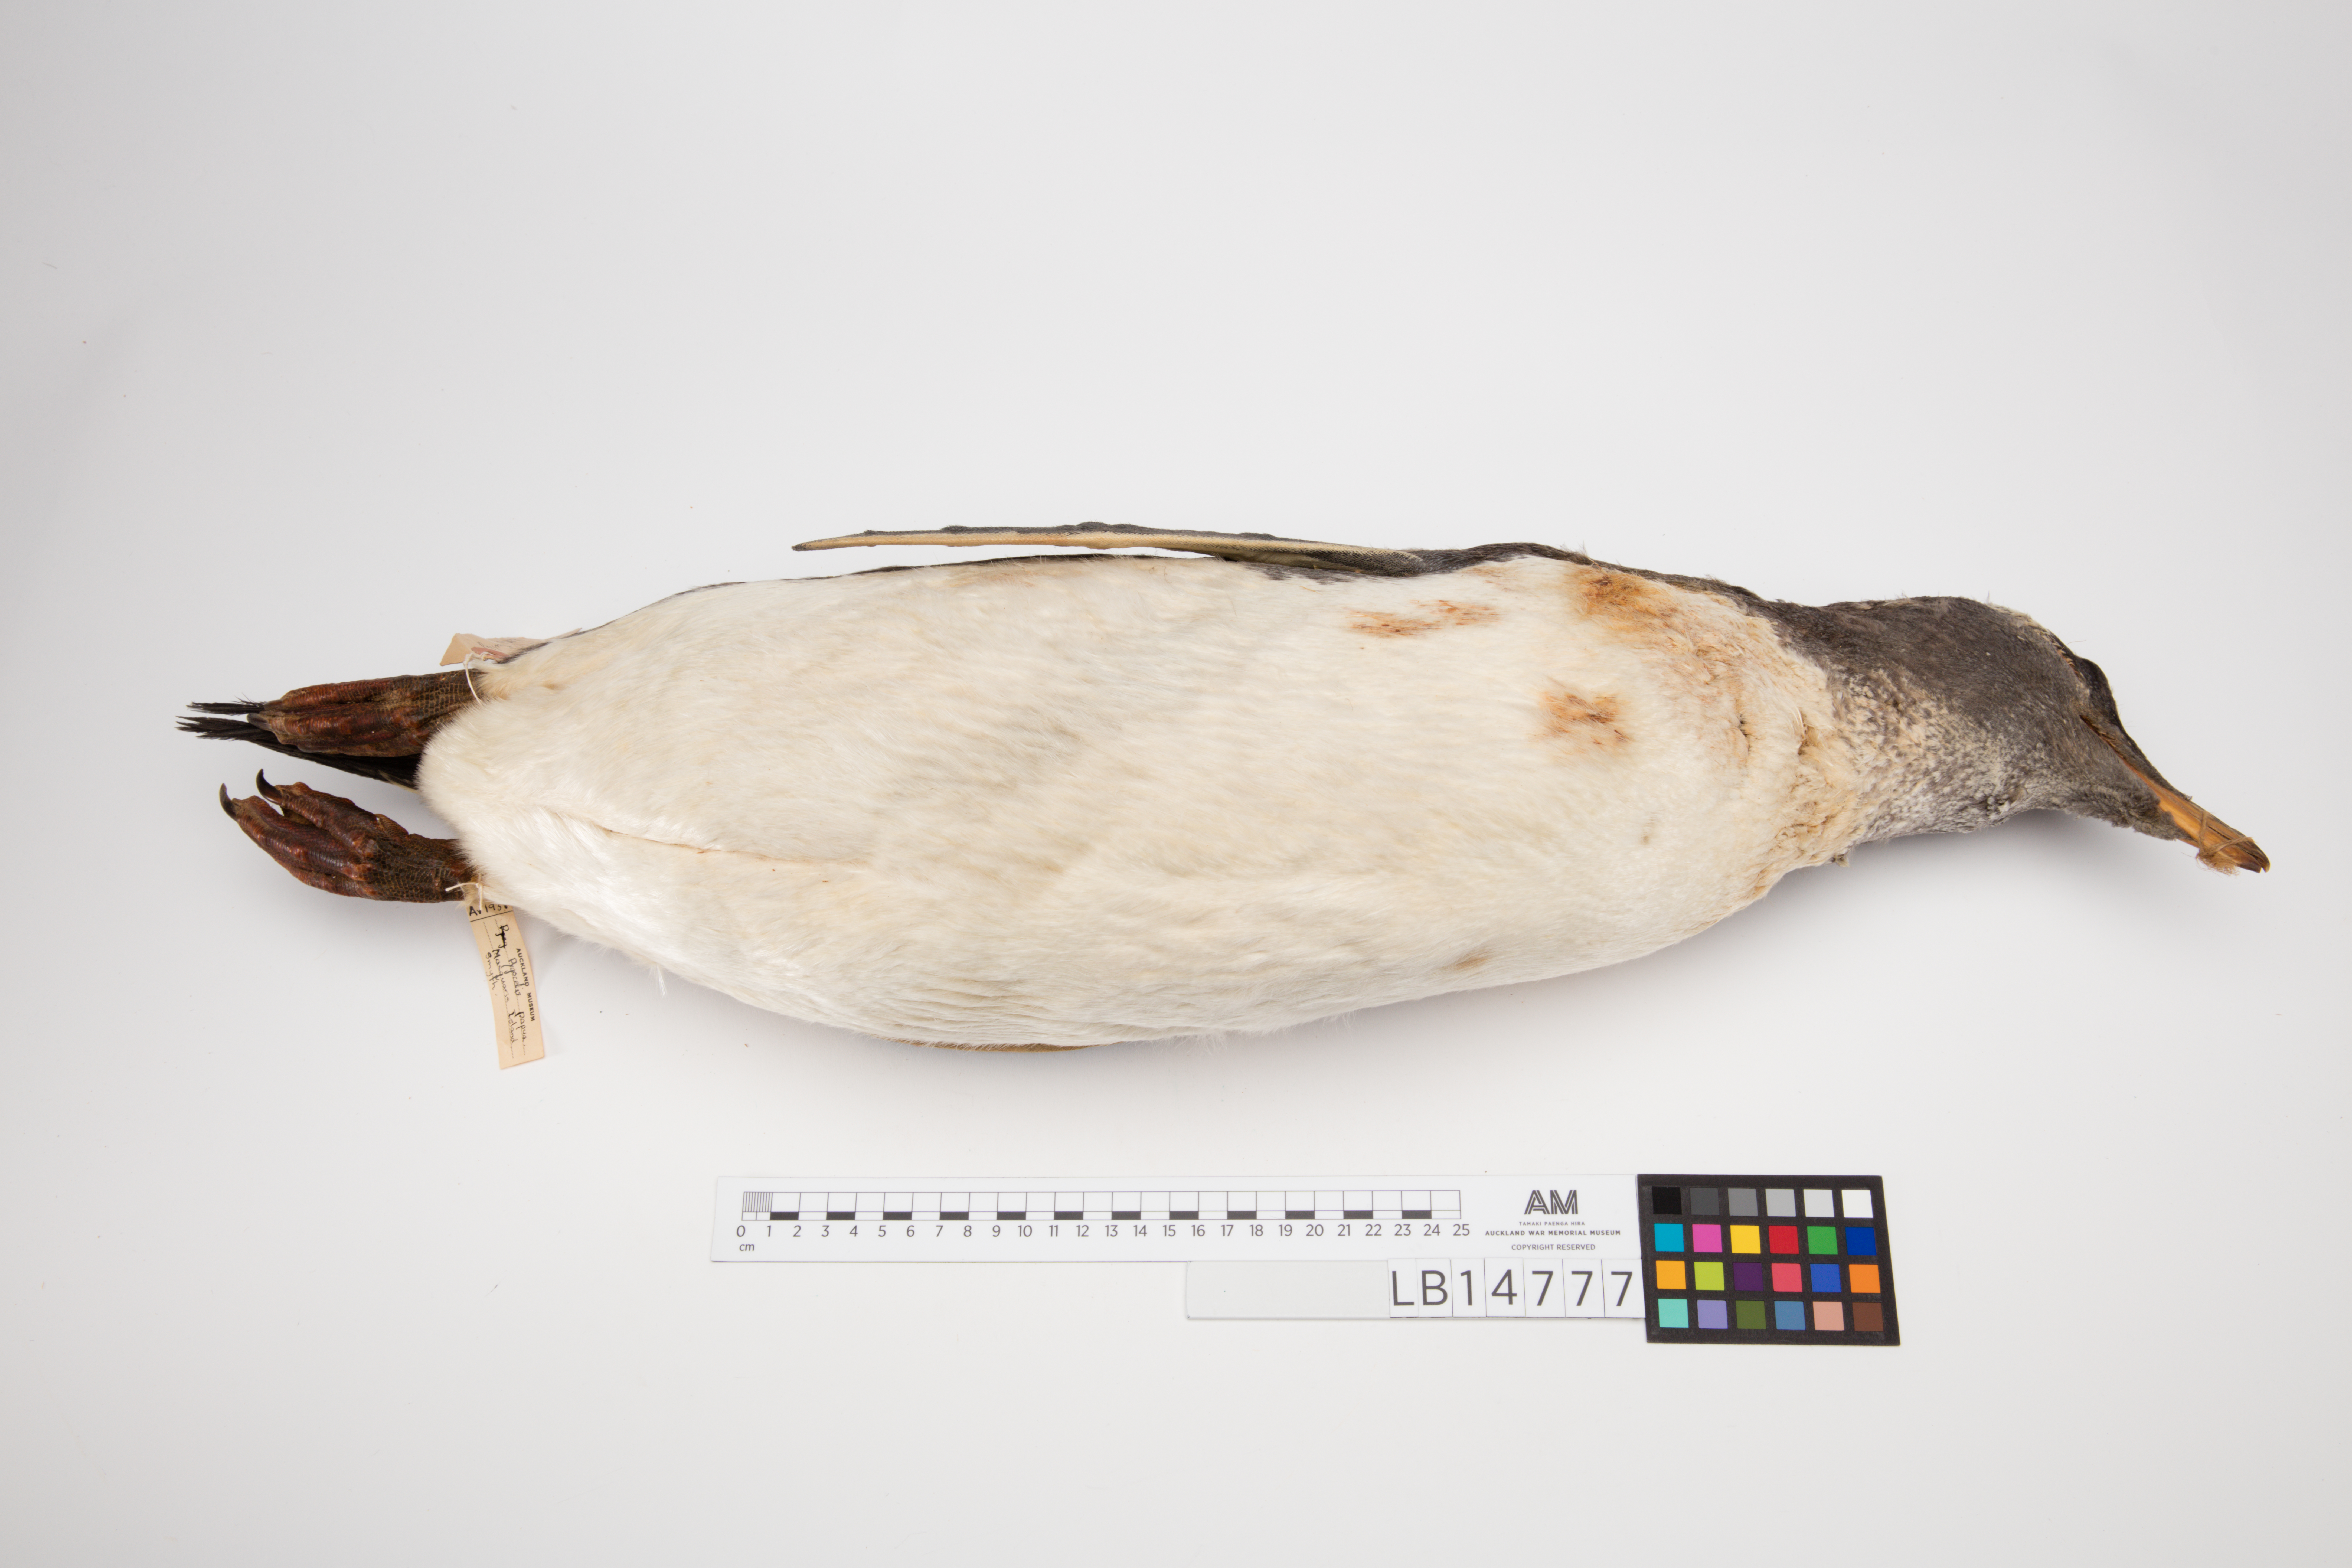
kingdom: Animalia
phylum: Chordata
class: Aves
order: Sphenisciformes
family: Spheniscidae
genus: Pygoscelis
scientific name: Pygoscelis papua
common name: Gentoo penguin
